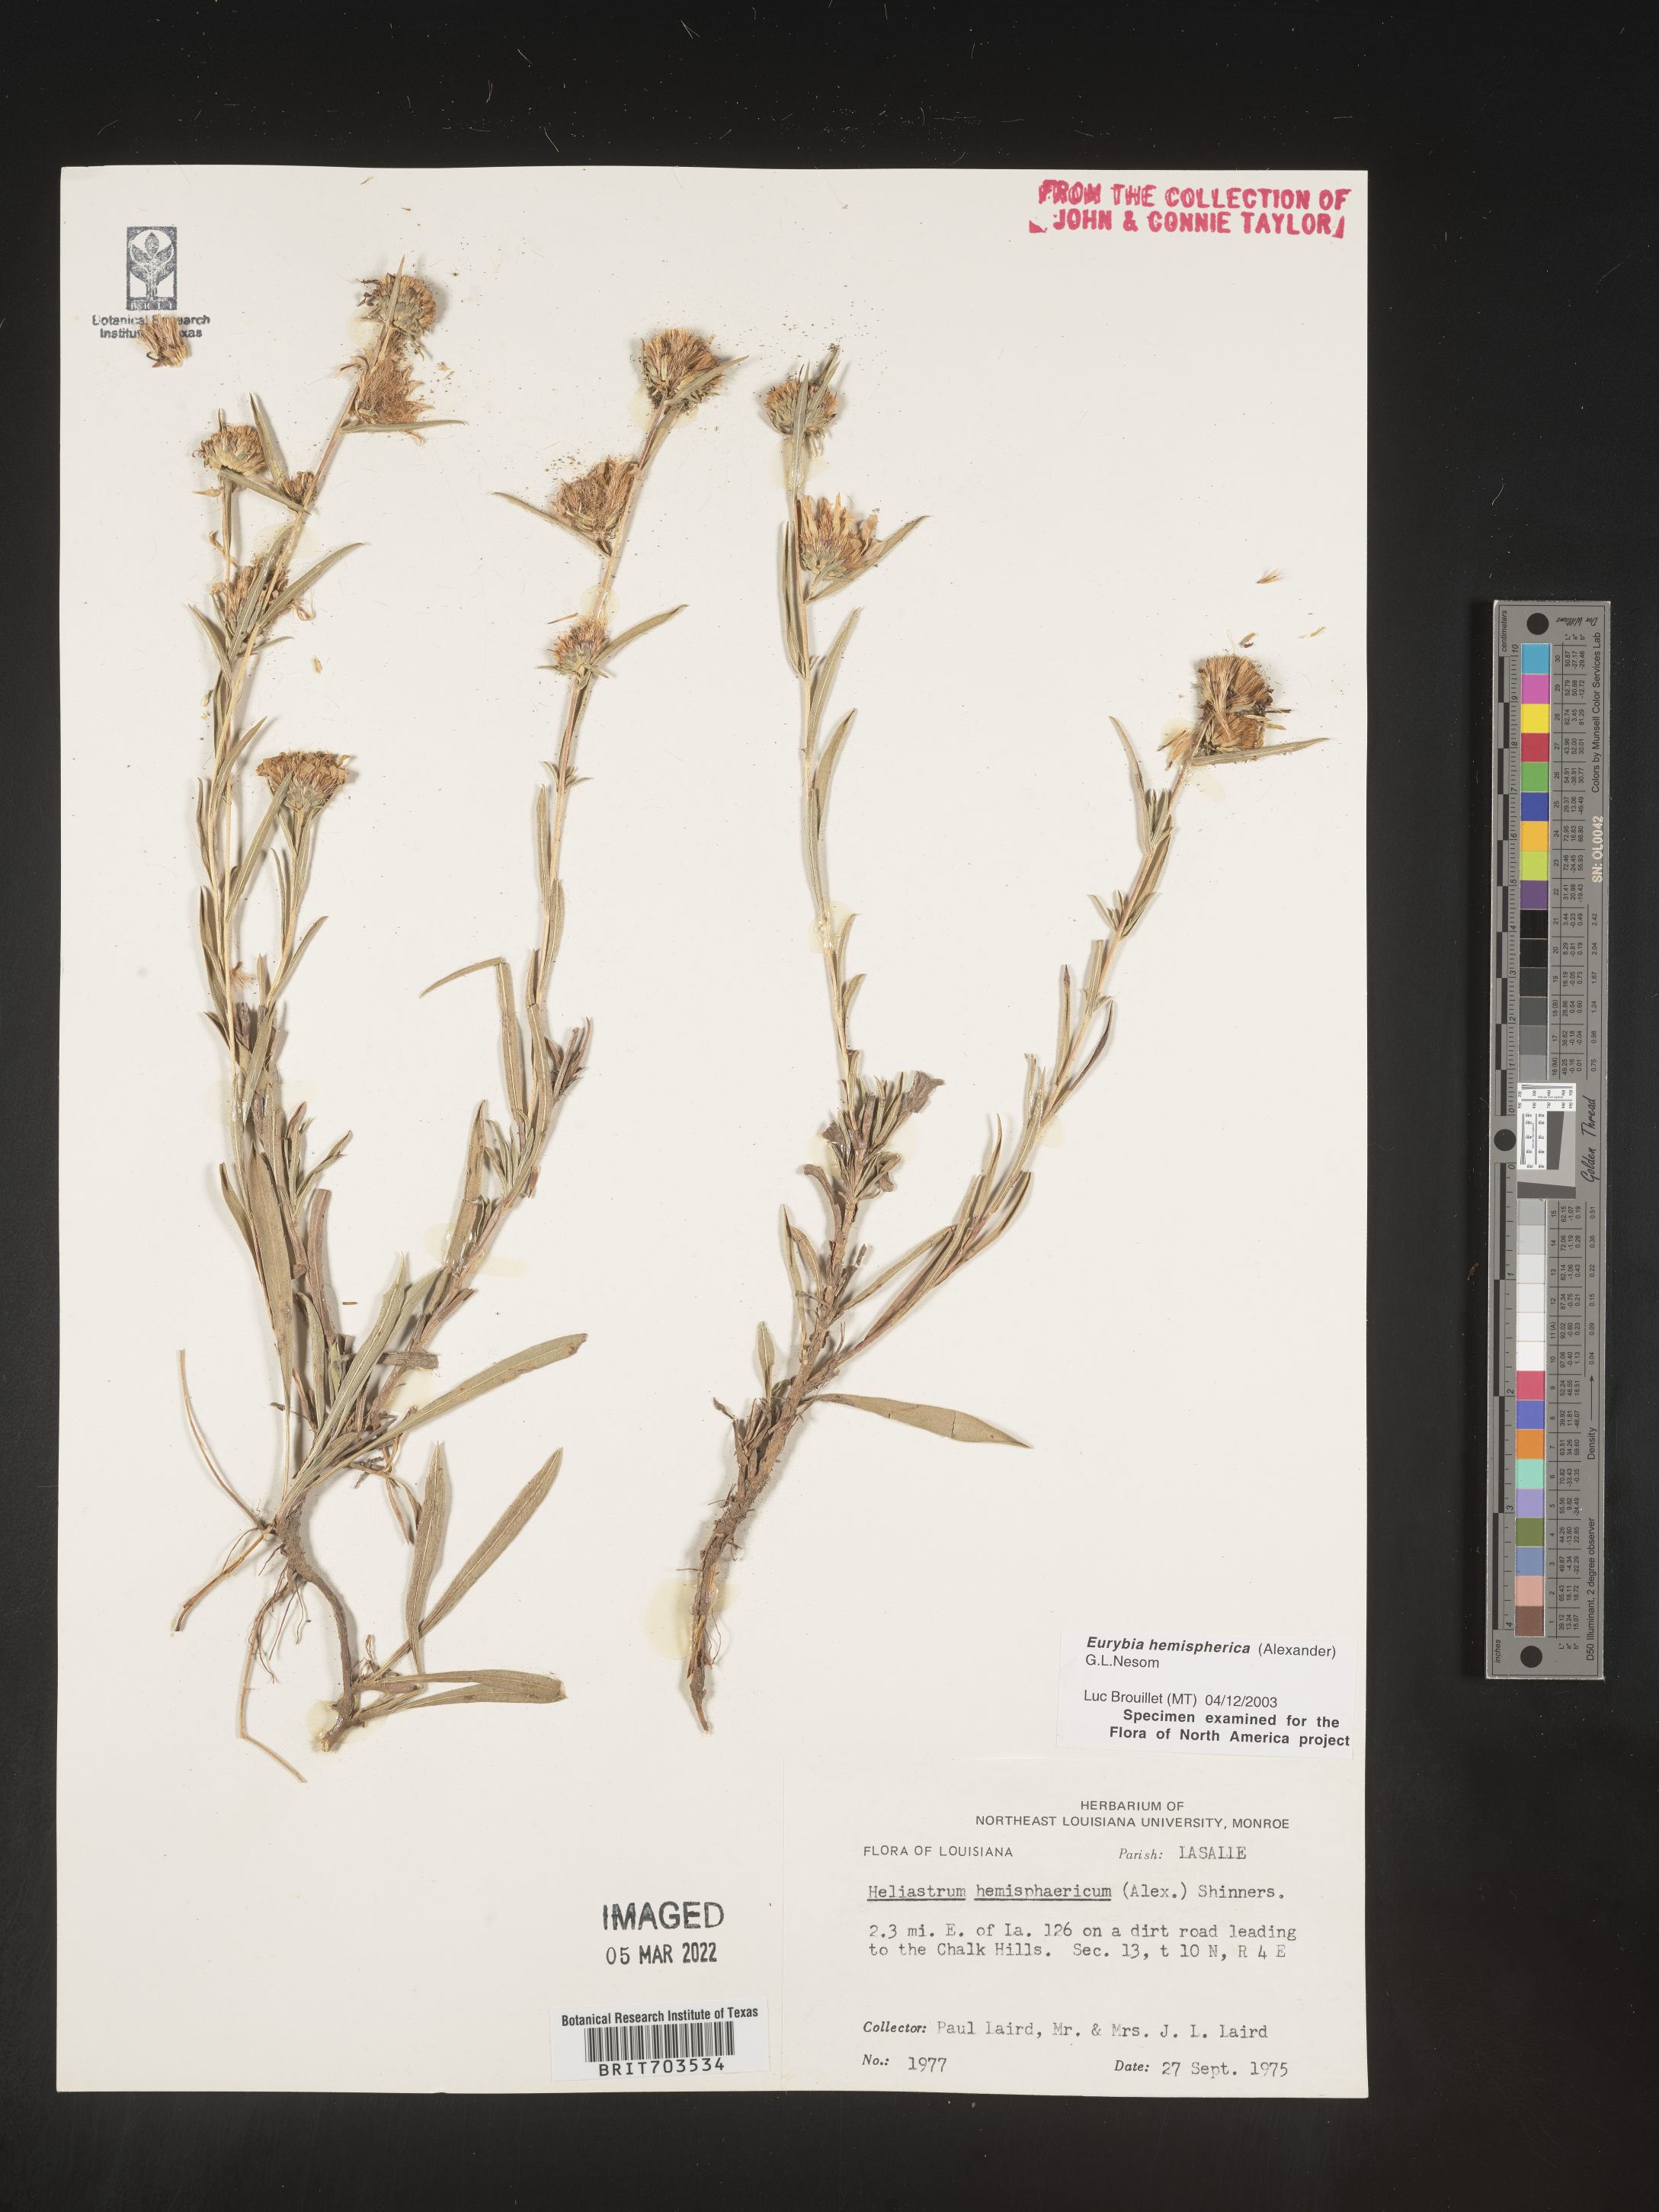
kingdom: Plantae
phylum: Tracheophyta
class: Magnoliopsida
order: Asterales
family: Asteraceae
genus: Eurybia
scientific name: Eurybia hemispherica
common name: Showy aster
